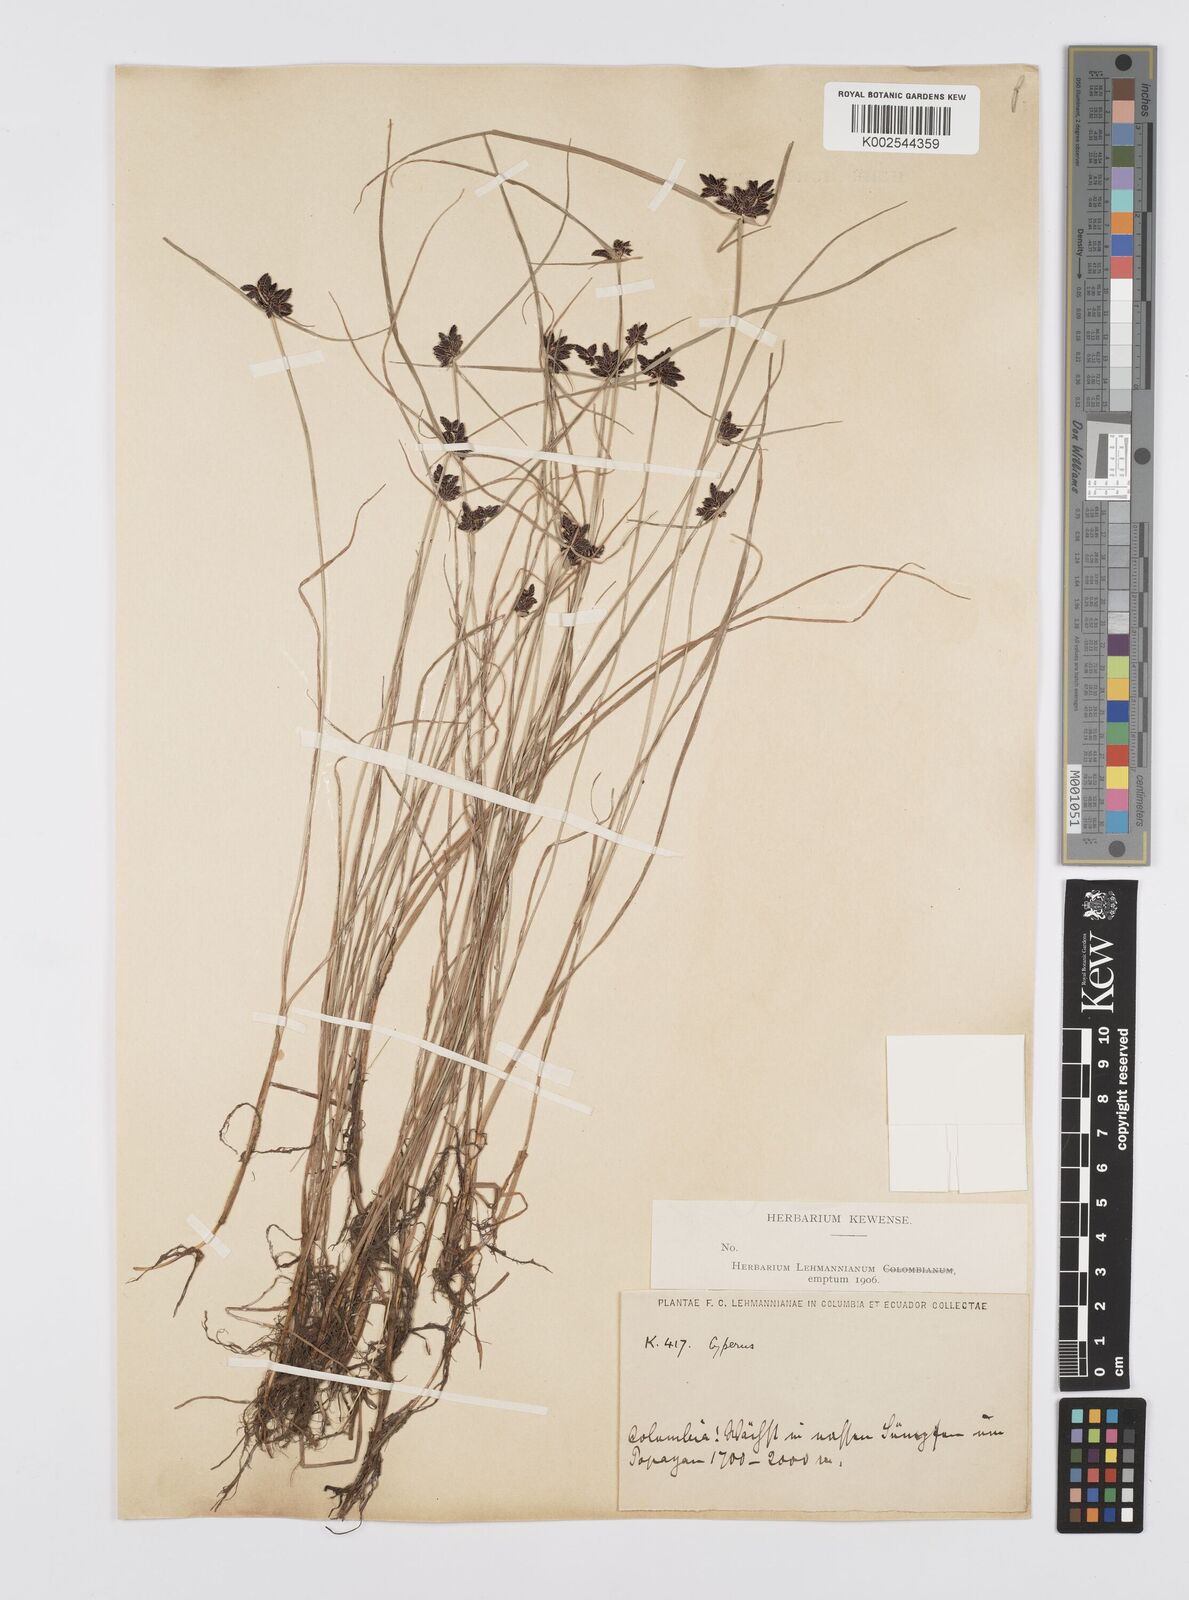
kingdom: Plantae
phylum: Tracheophyta
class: Liliopsida
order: Poales
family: Cyperaceae
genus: Cyperus
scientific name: Cyperus melanostachyus
